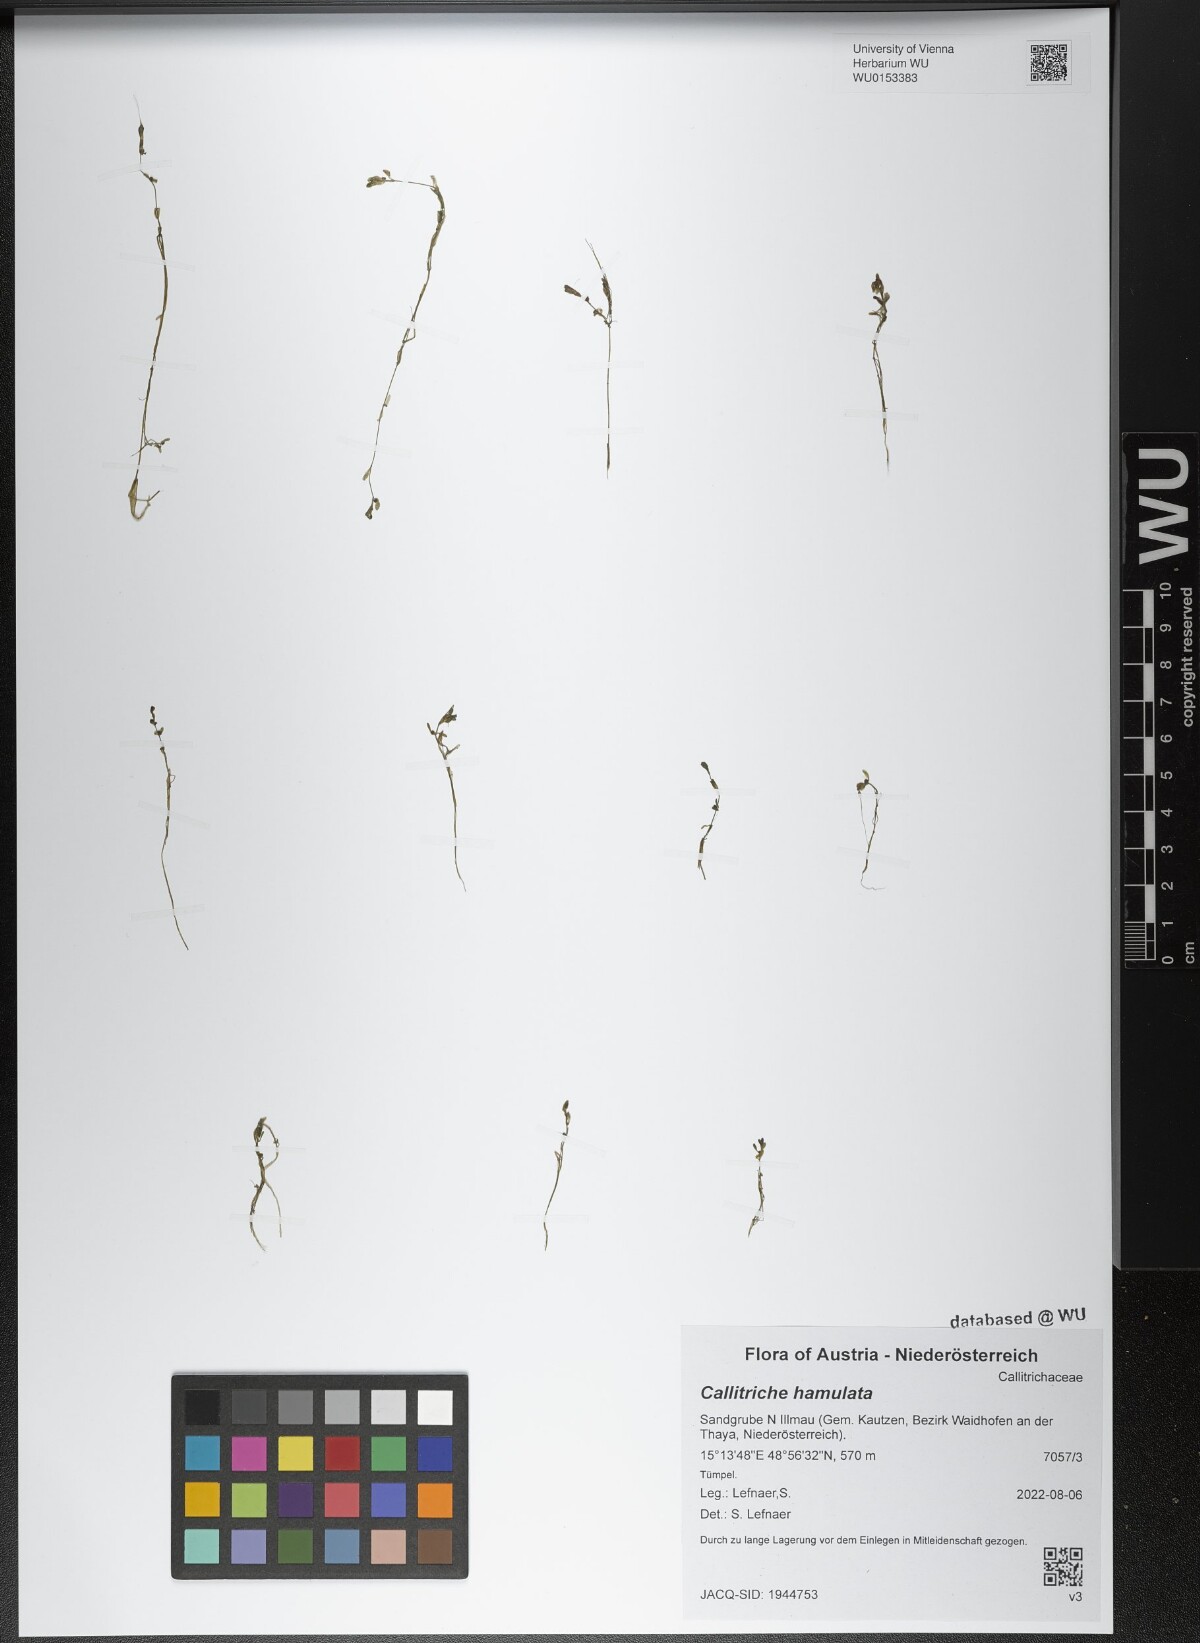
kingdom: Plantae
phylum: Tracheophyta
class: Magnoliopsida
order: Lamiales
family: Plantaginaceae
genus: Callitriche
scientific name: Callitriche hamulata
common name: Intermediate water-starwort
